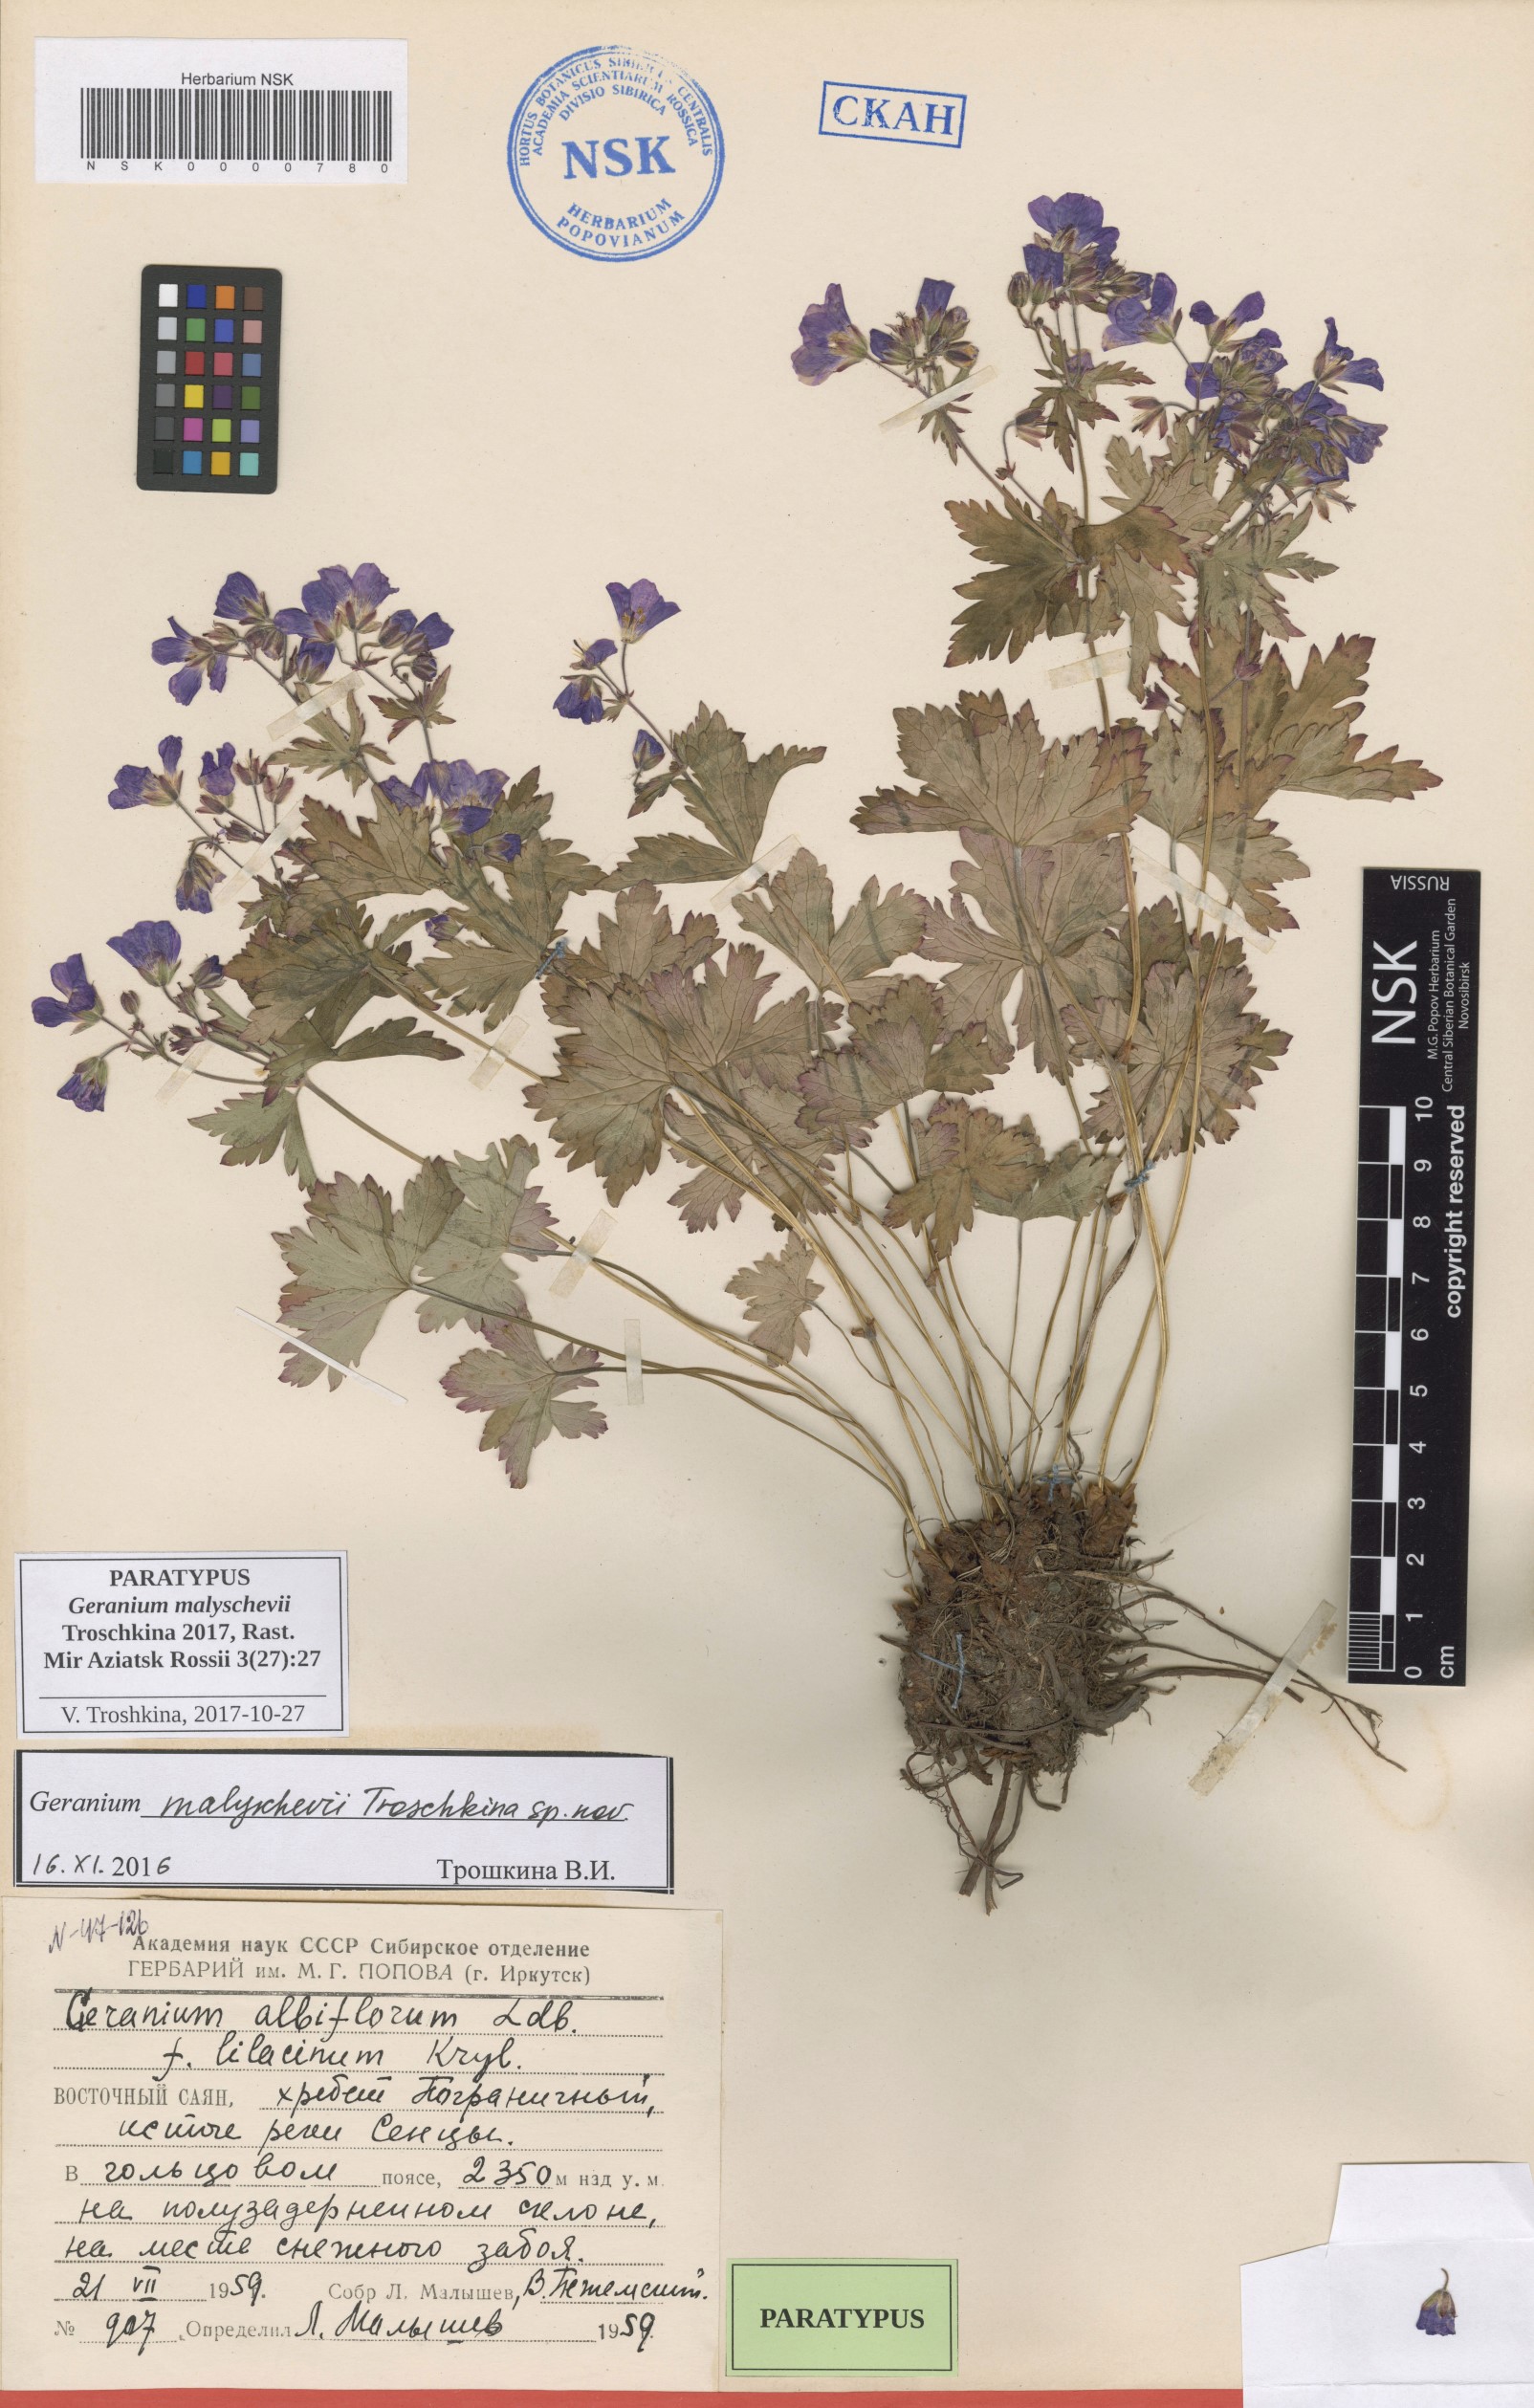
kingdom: Plantae
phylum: Tracheophyta
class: Magnoliopsida
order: Geraniales
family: Geraniaceae
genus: Geranium
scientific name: Geranium malyschevii
